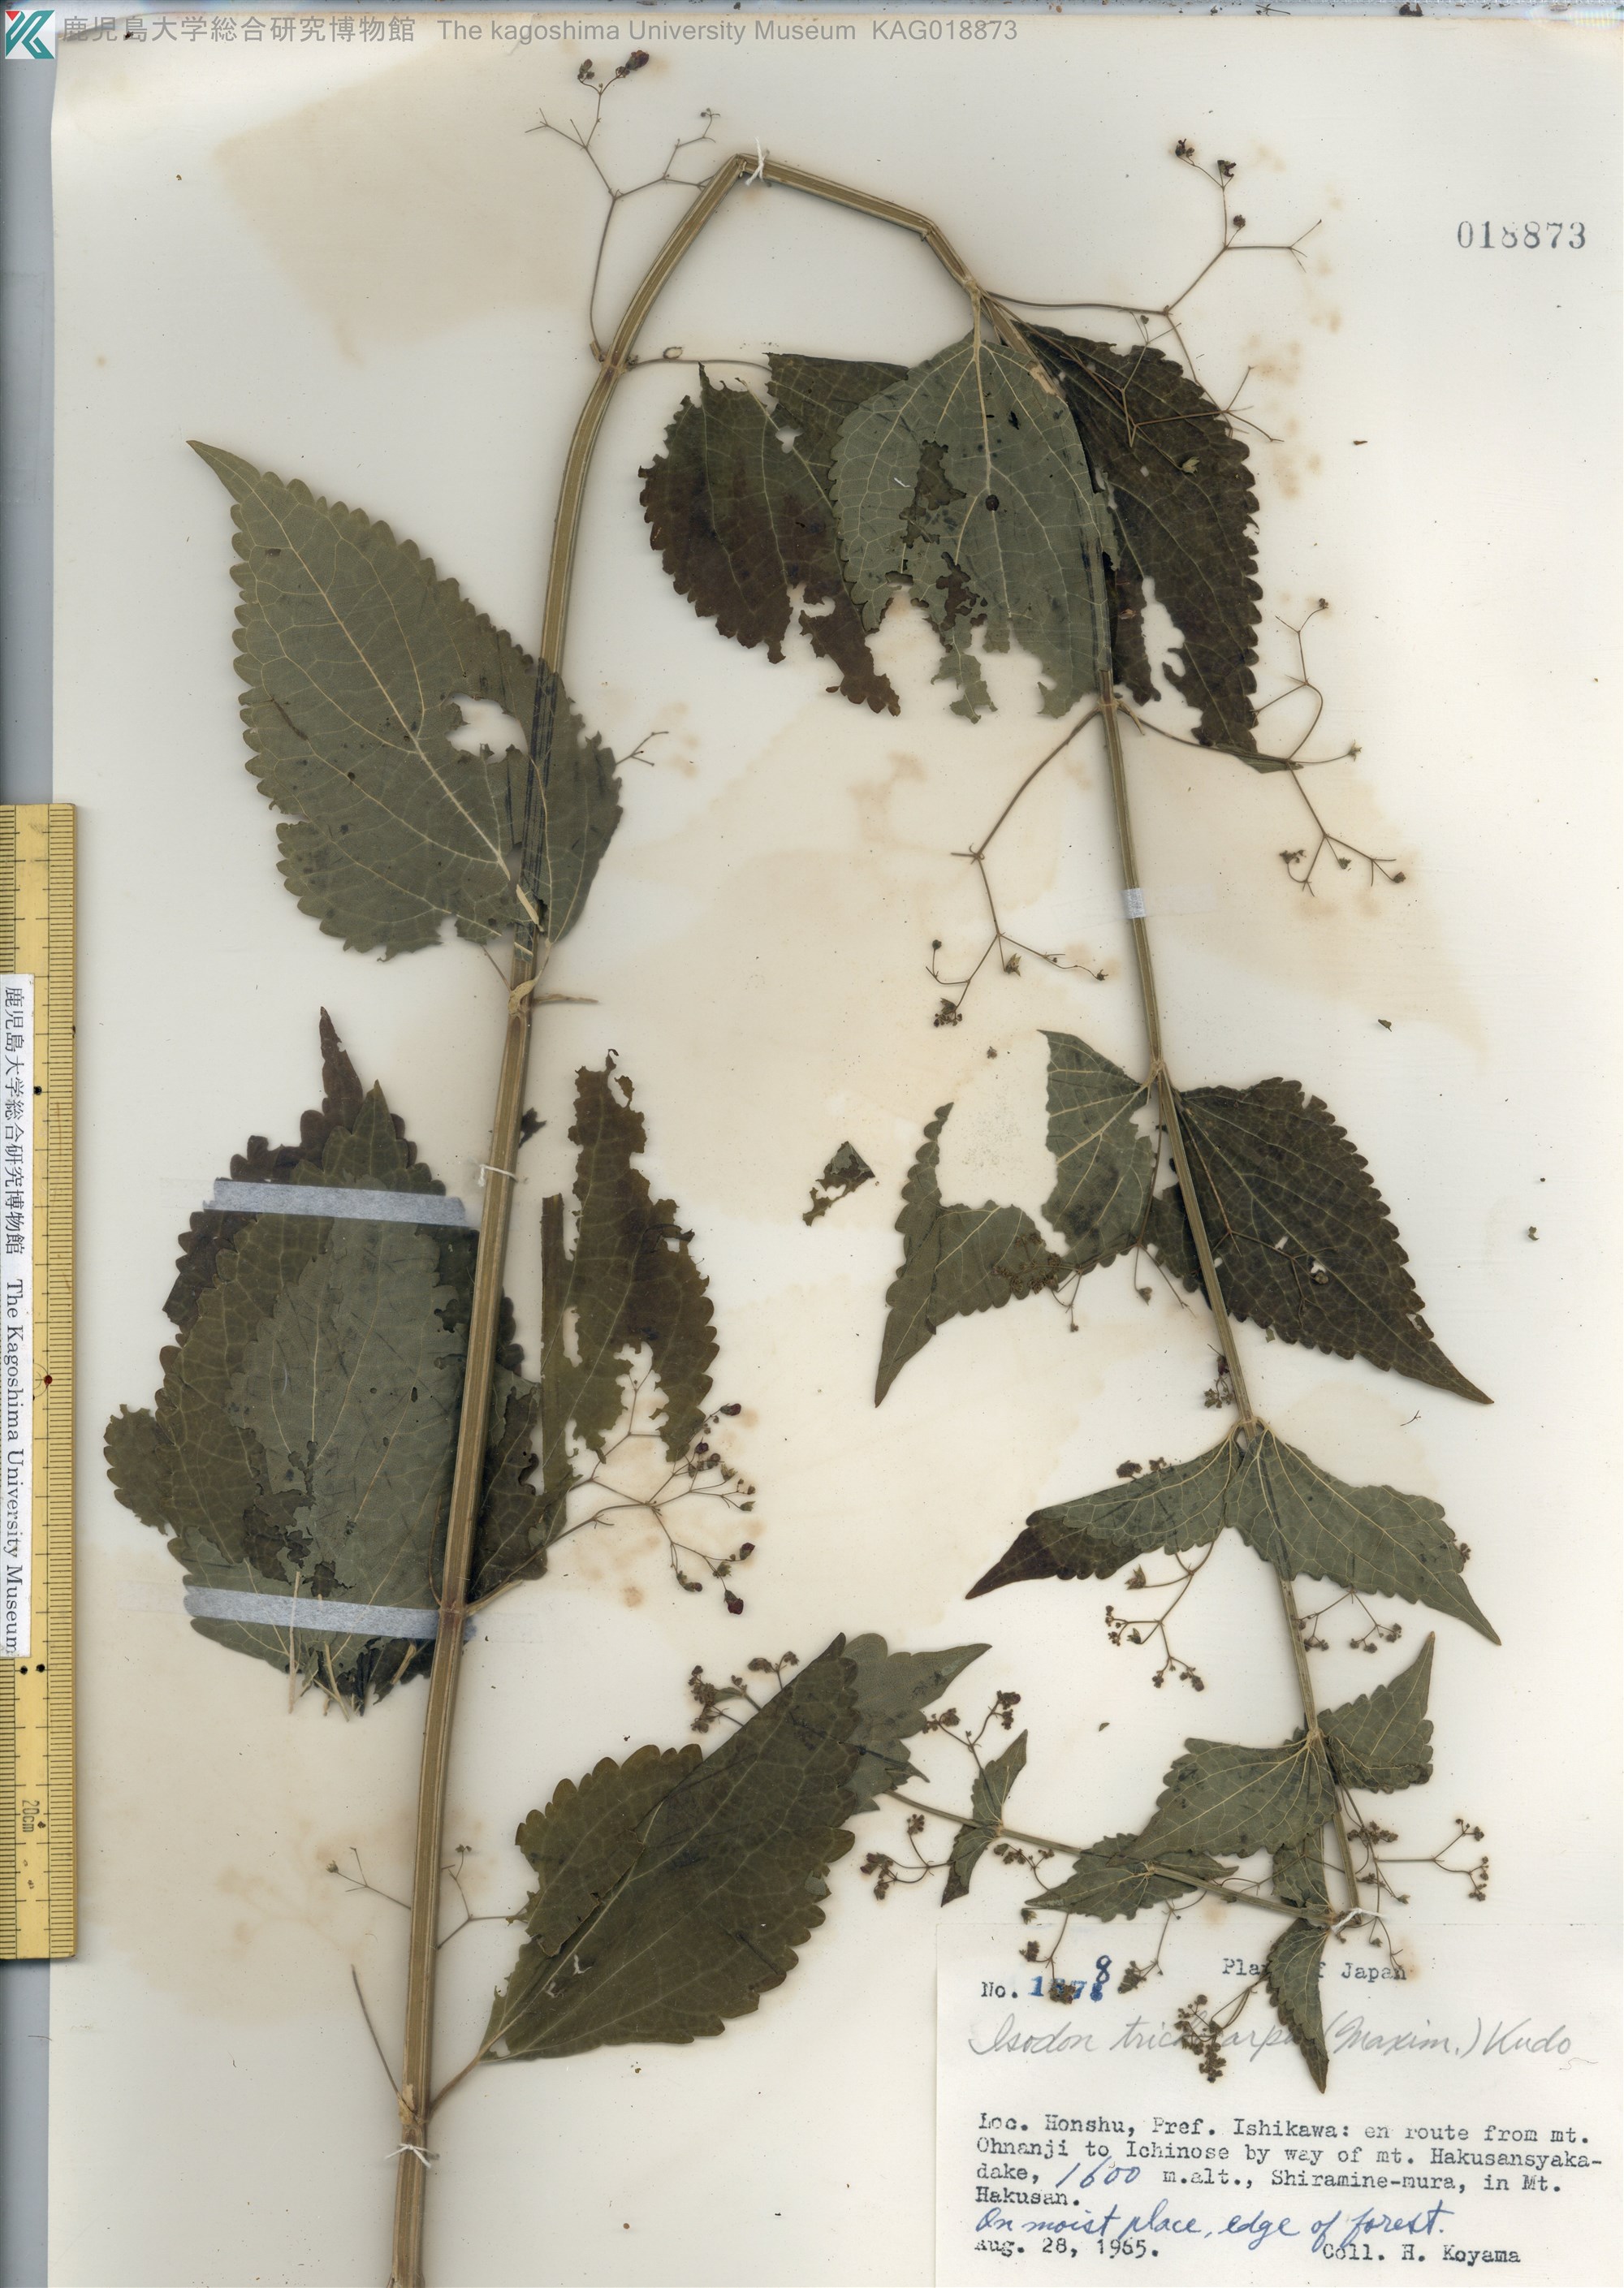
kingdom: Plantae
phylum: Tracheophyta
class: Magnoliopsida
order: Lamiales
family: Lamiaceae
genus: Isodon
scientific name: Isodon trichocarpus
